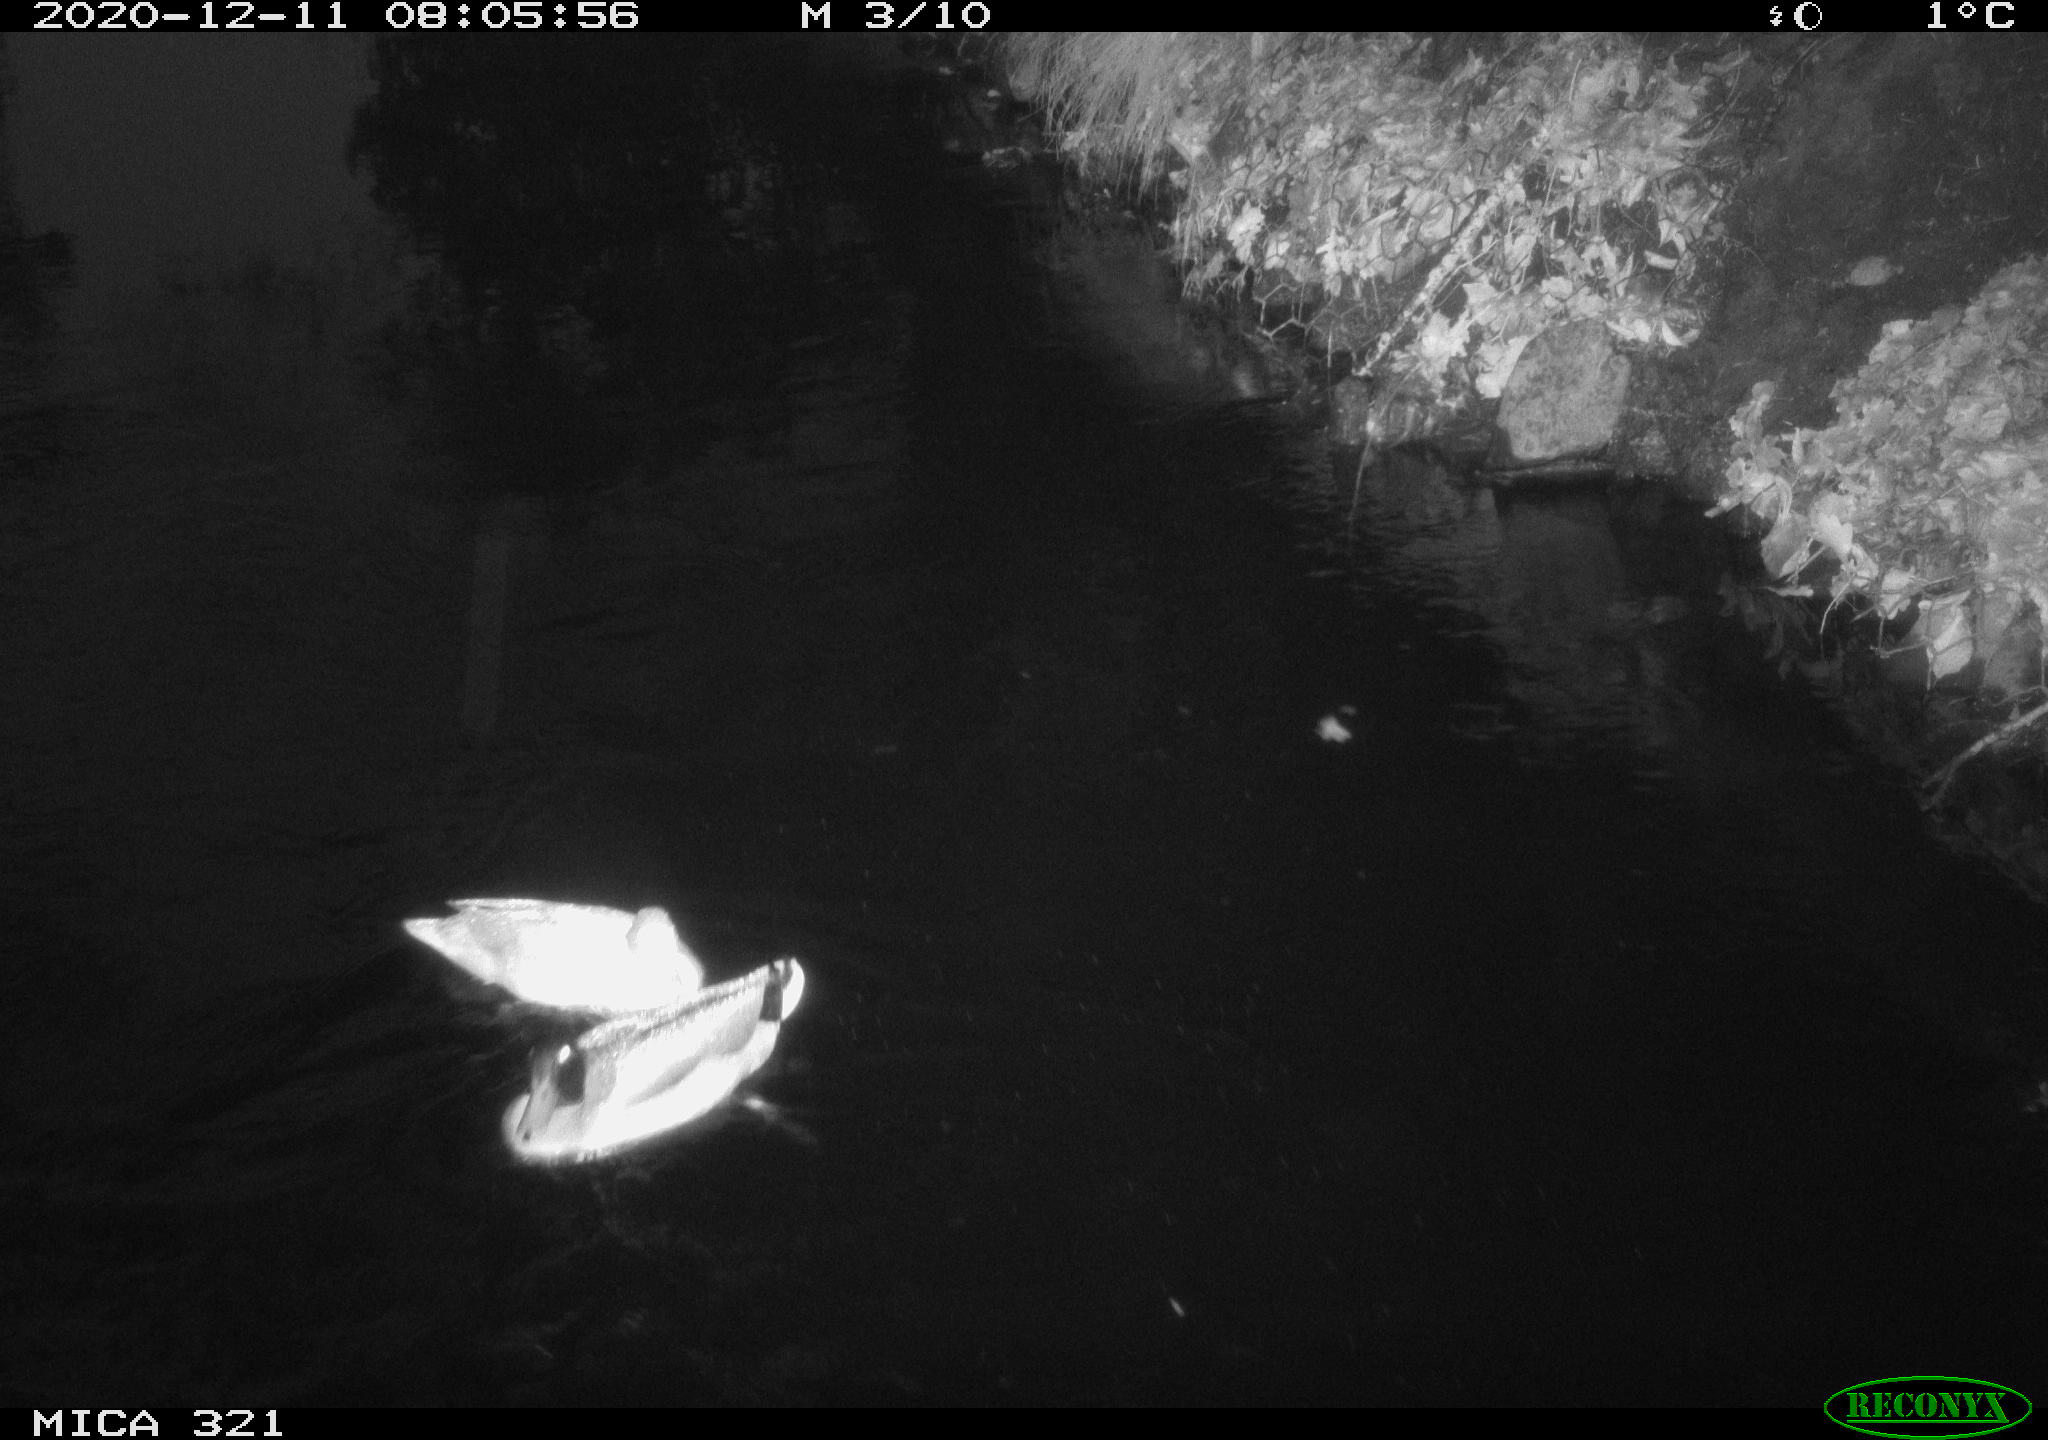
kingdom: Animalia
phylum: Chordata
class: Aves
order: Anseriformes
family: Anatidae
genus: Anas
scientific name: Anas platyrhynchos
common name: Mallard
